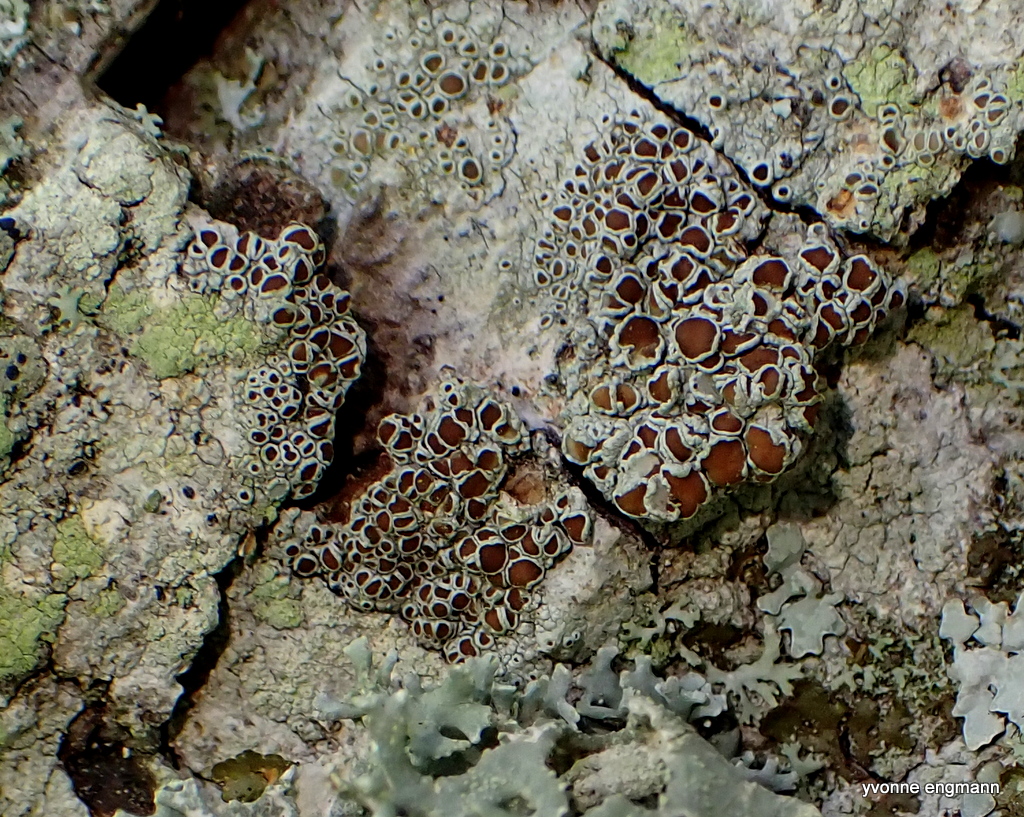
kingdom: Fungi
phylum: Ascomycota
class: Lecanoromycetes
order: Lecanorales
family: Lecanoraceae
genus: Lecanora
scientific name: Lecanora chlarotera
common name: brun kantskivelav
